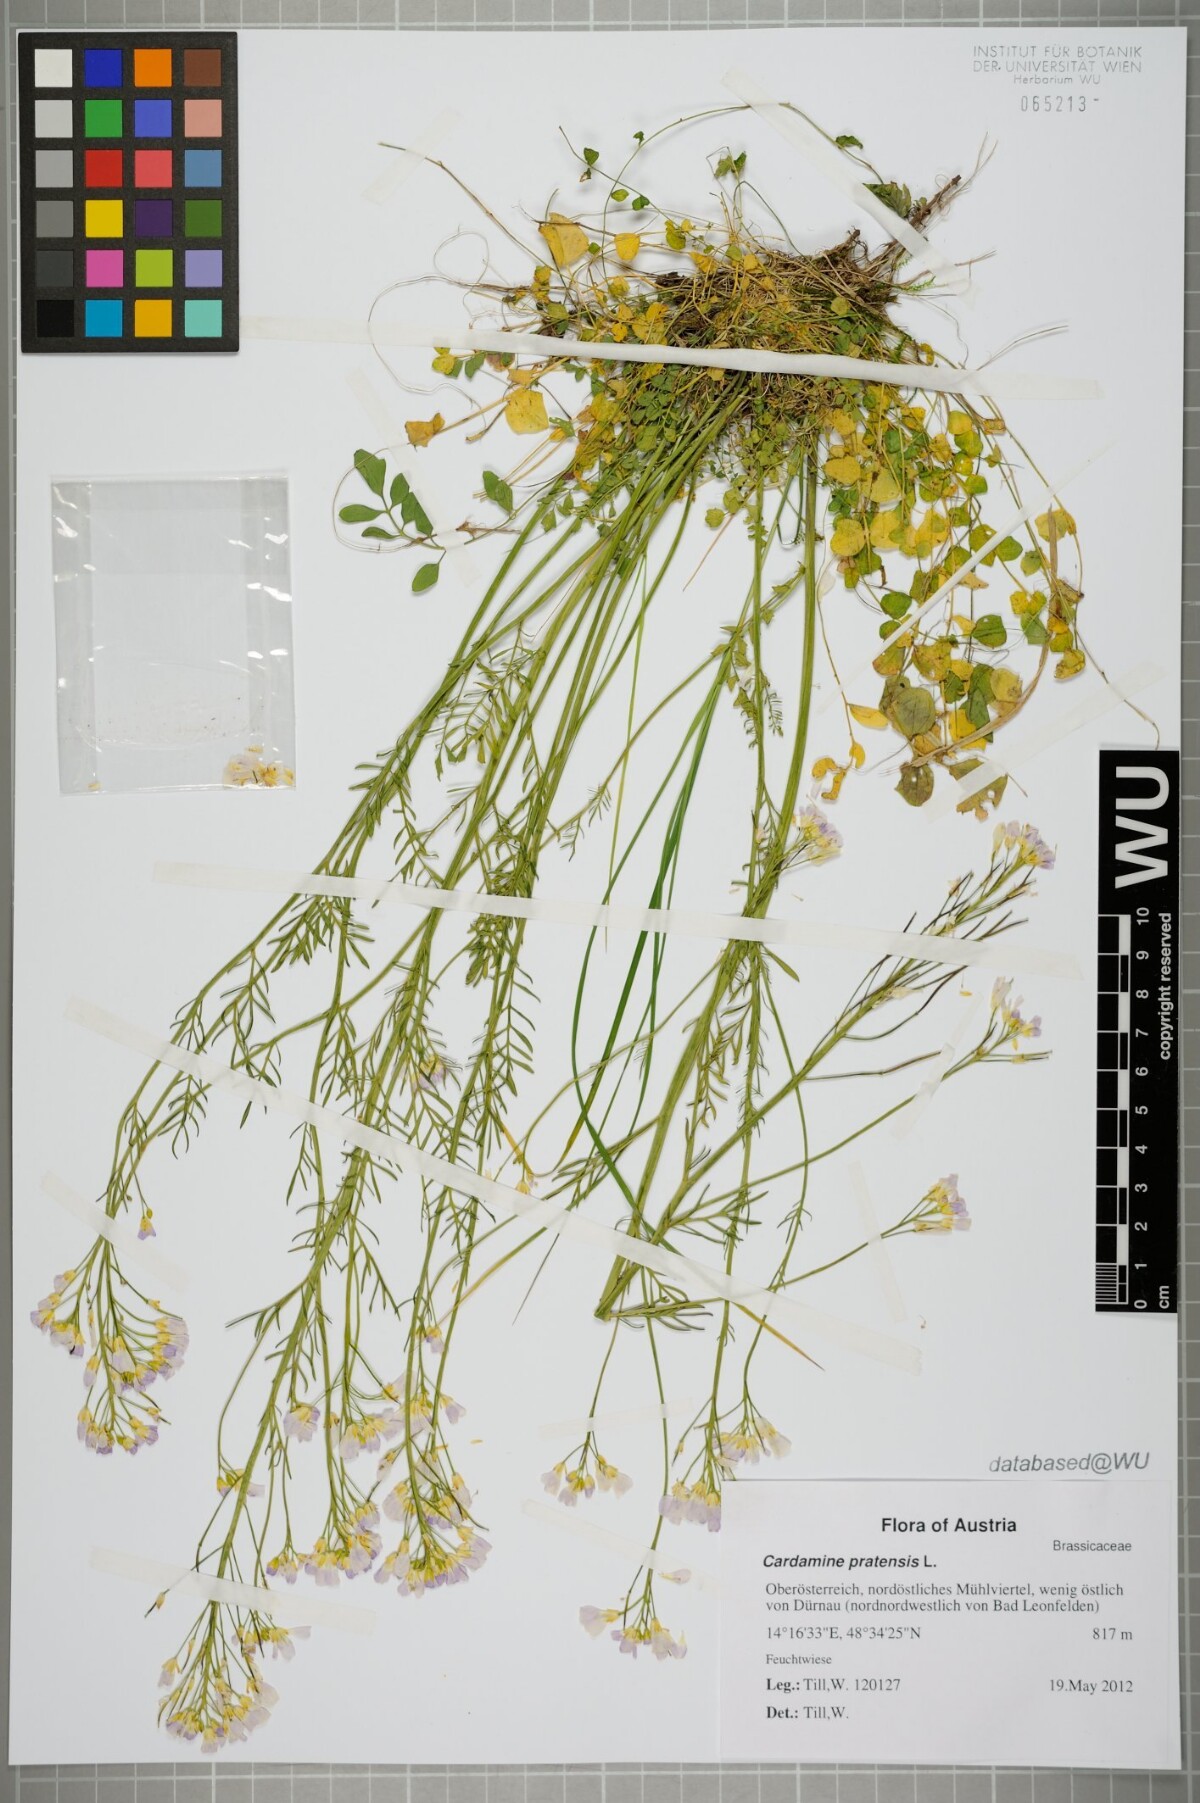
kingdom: Plantae
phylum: Tracheophyta
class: Magnoliopsida
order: Brassicales
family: Brassicaceae
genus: Cardamine
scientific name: Cardamine pratensis
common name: Cuckoo flower
